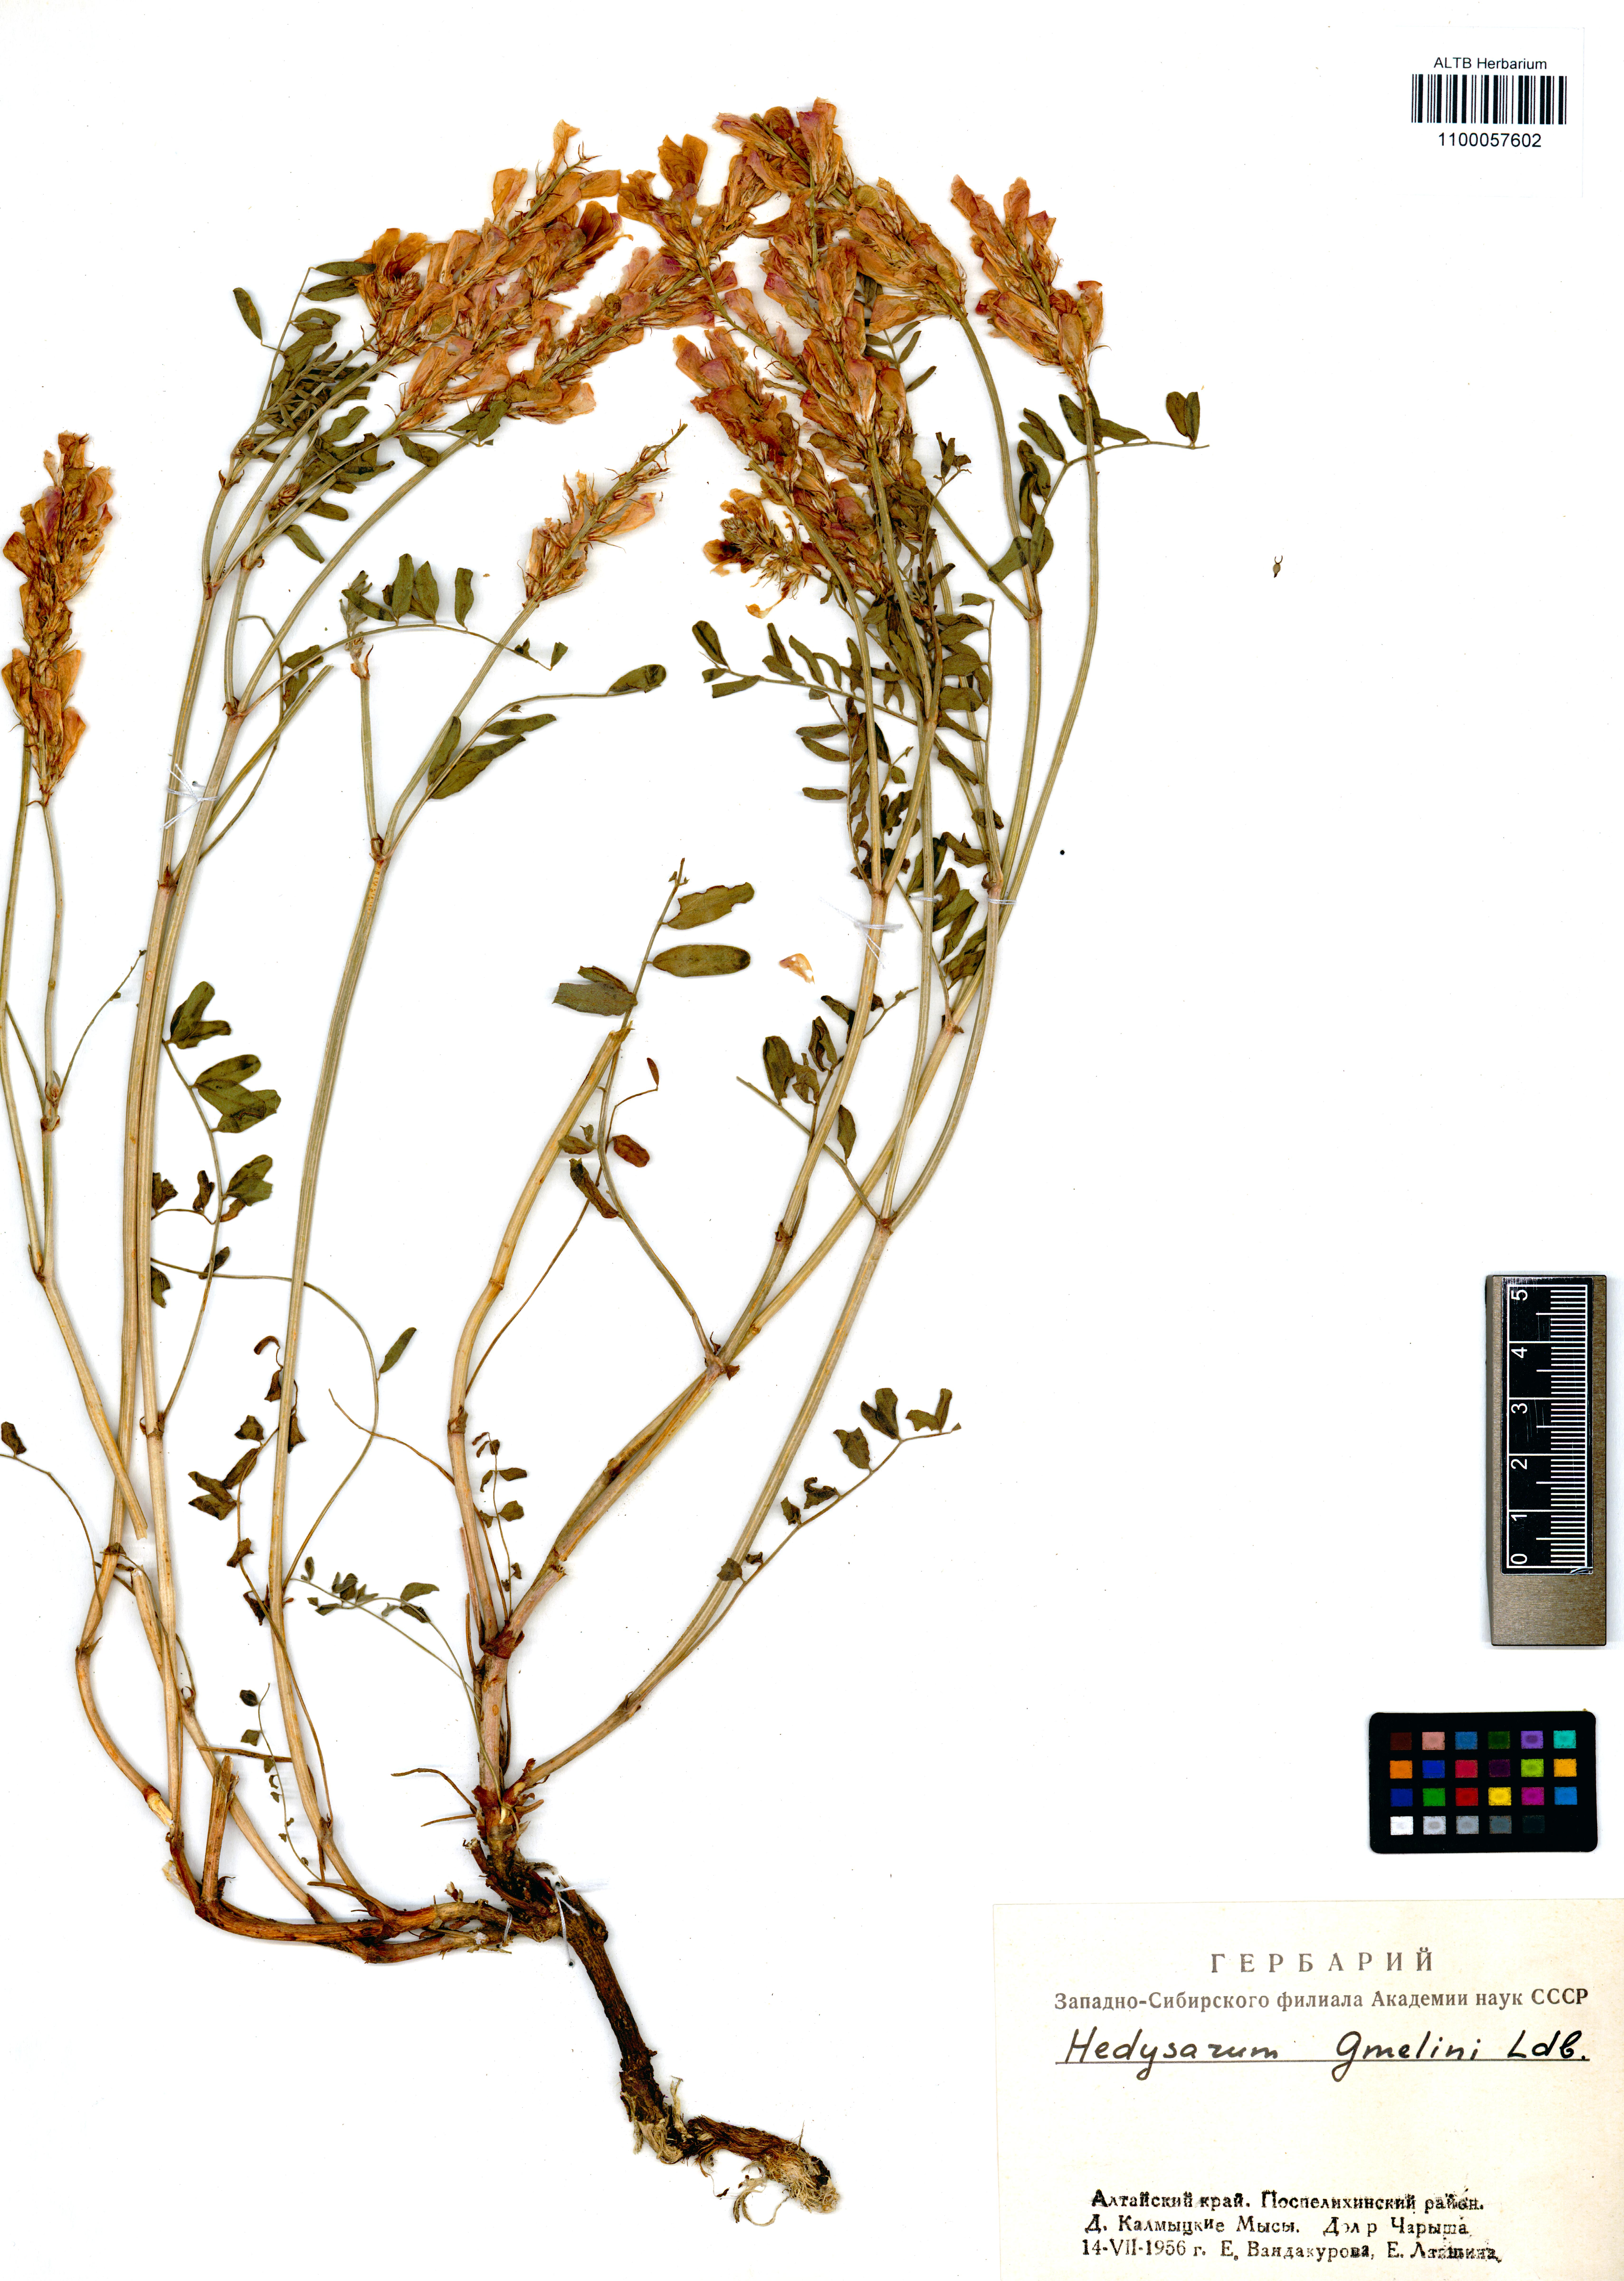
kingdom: Plantae
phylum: Tracheophyta
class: Magnoliopsida
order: Fabales
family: Fabaceae
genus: Hedysarum
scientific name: Hedysarum gmelinii
